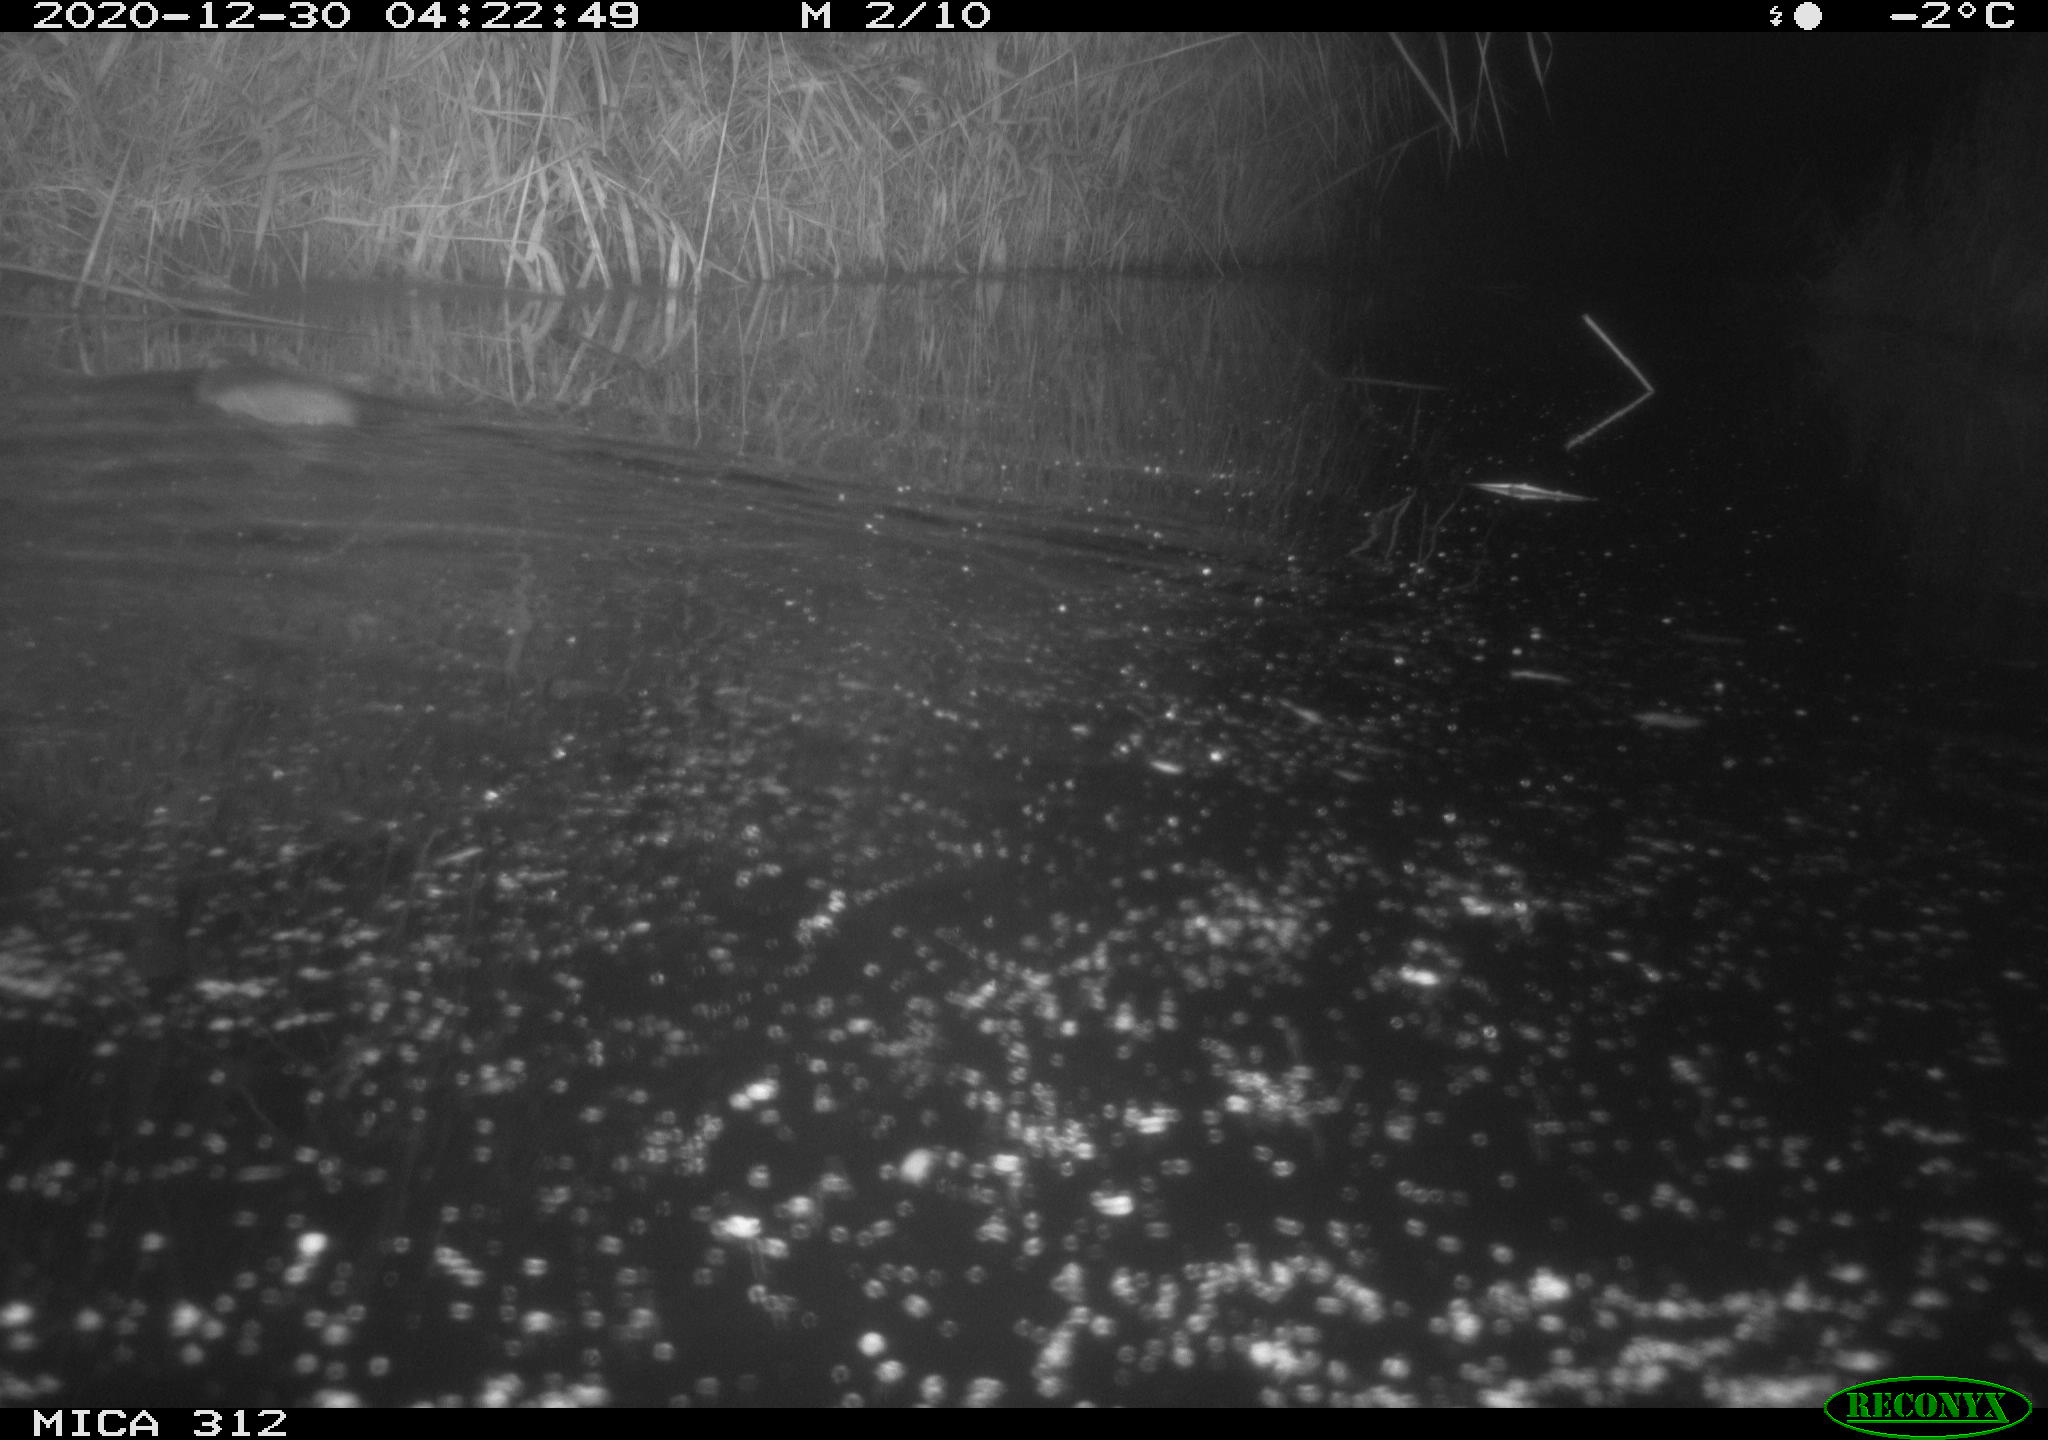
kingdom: Animalia
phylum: Chordata
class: Mammalia
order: Rodentia
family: Muridae
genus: Rattus
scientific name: Rattus norvegicus
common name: Brown rat
